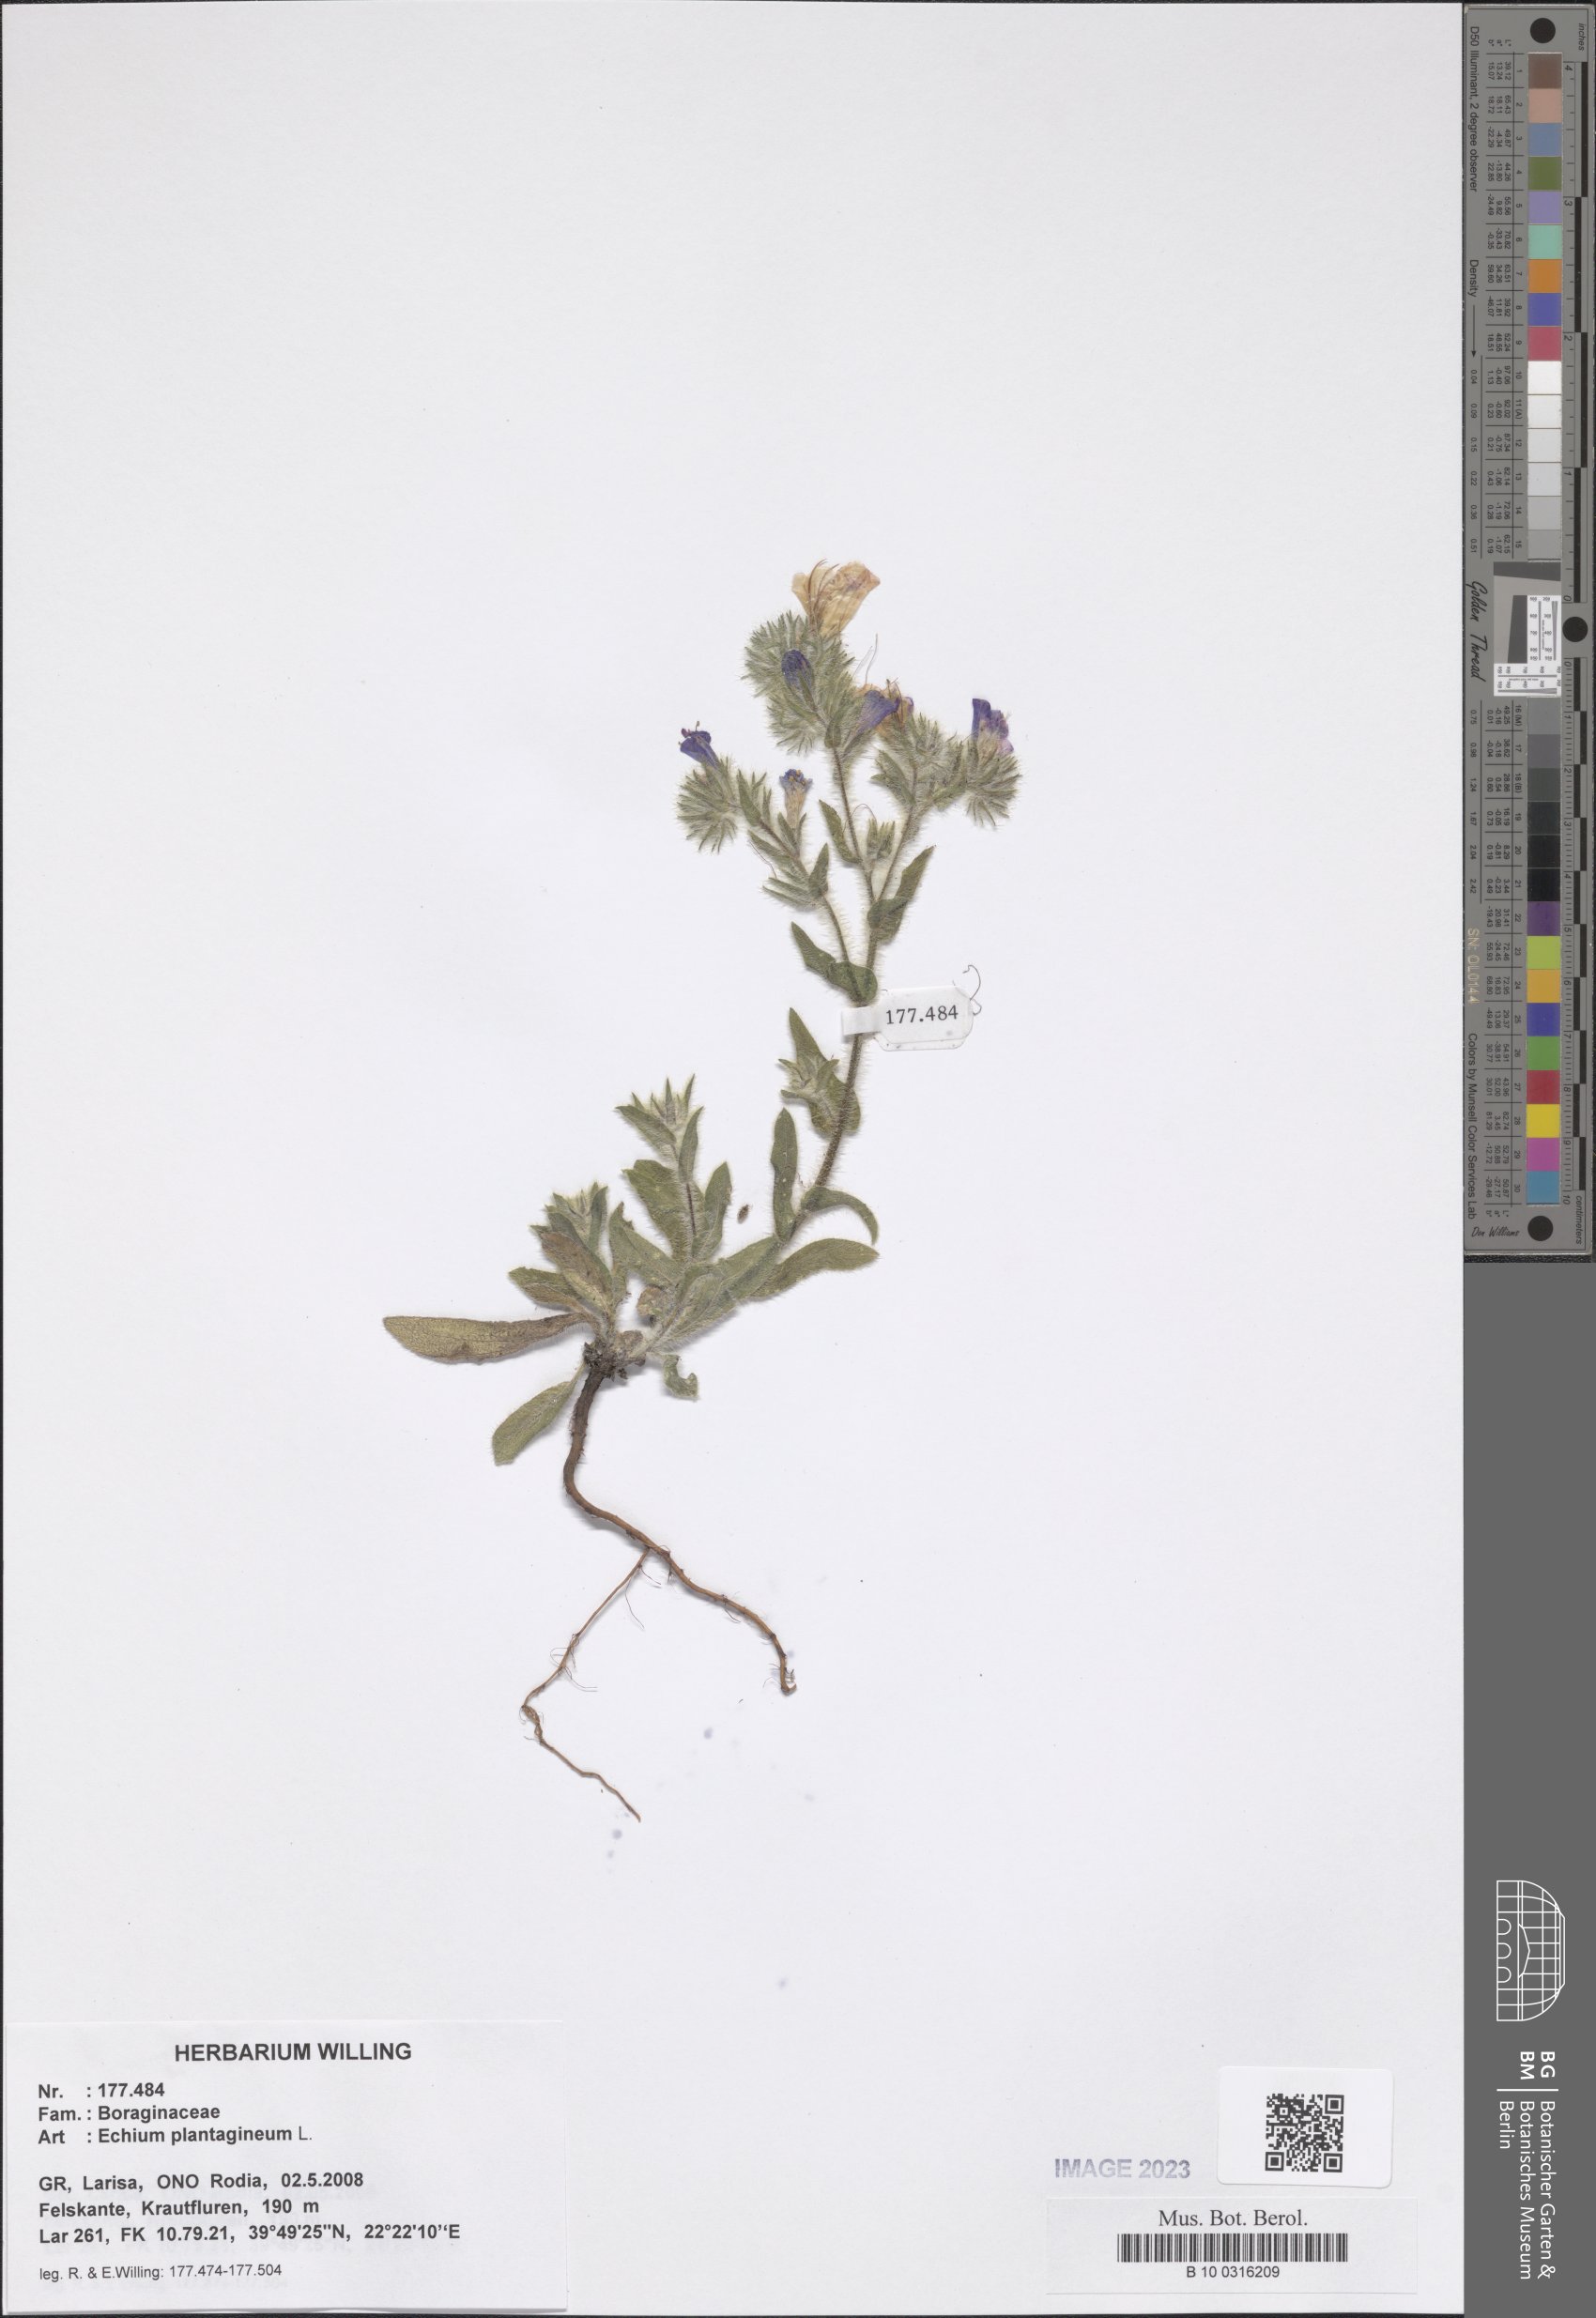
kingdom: Plantae
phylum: Tracheophyta
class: Magnoliopsida
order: Boraginales
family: Boraginaceae
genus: Echium
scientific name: Echium plantagineum
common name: Purple viper's-bugloss
